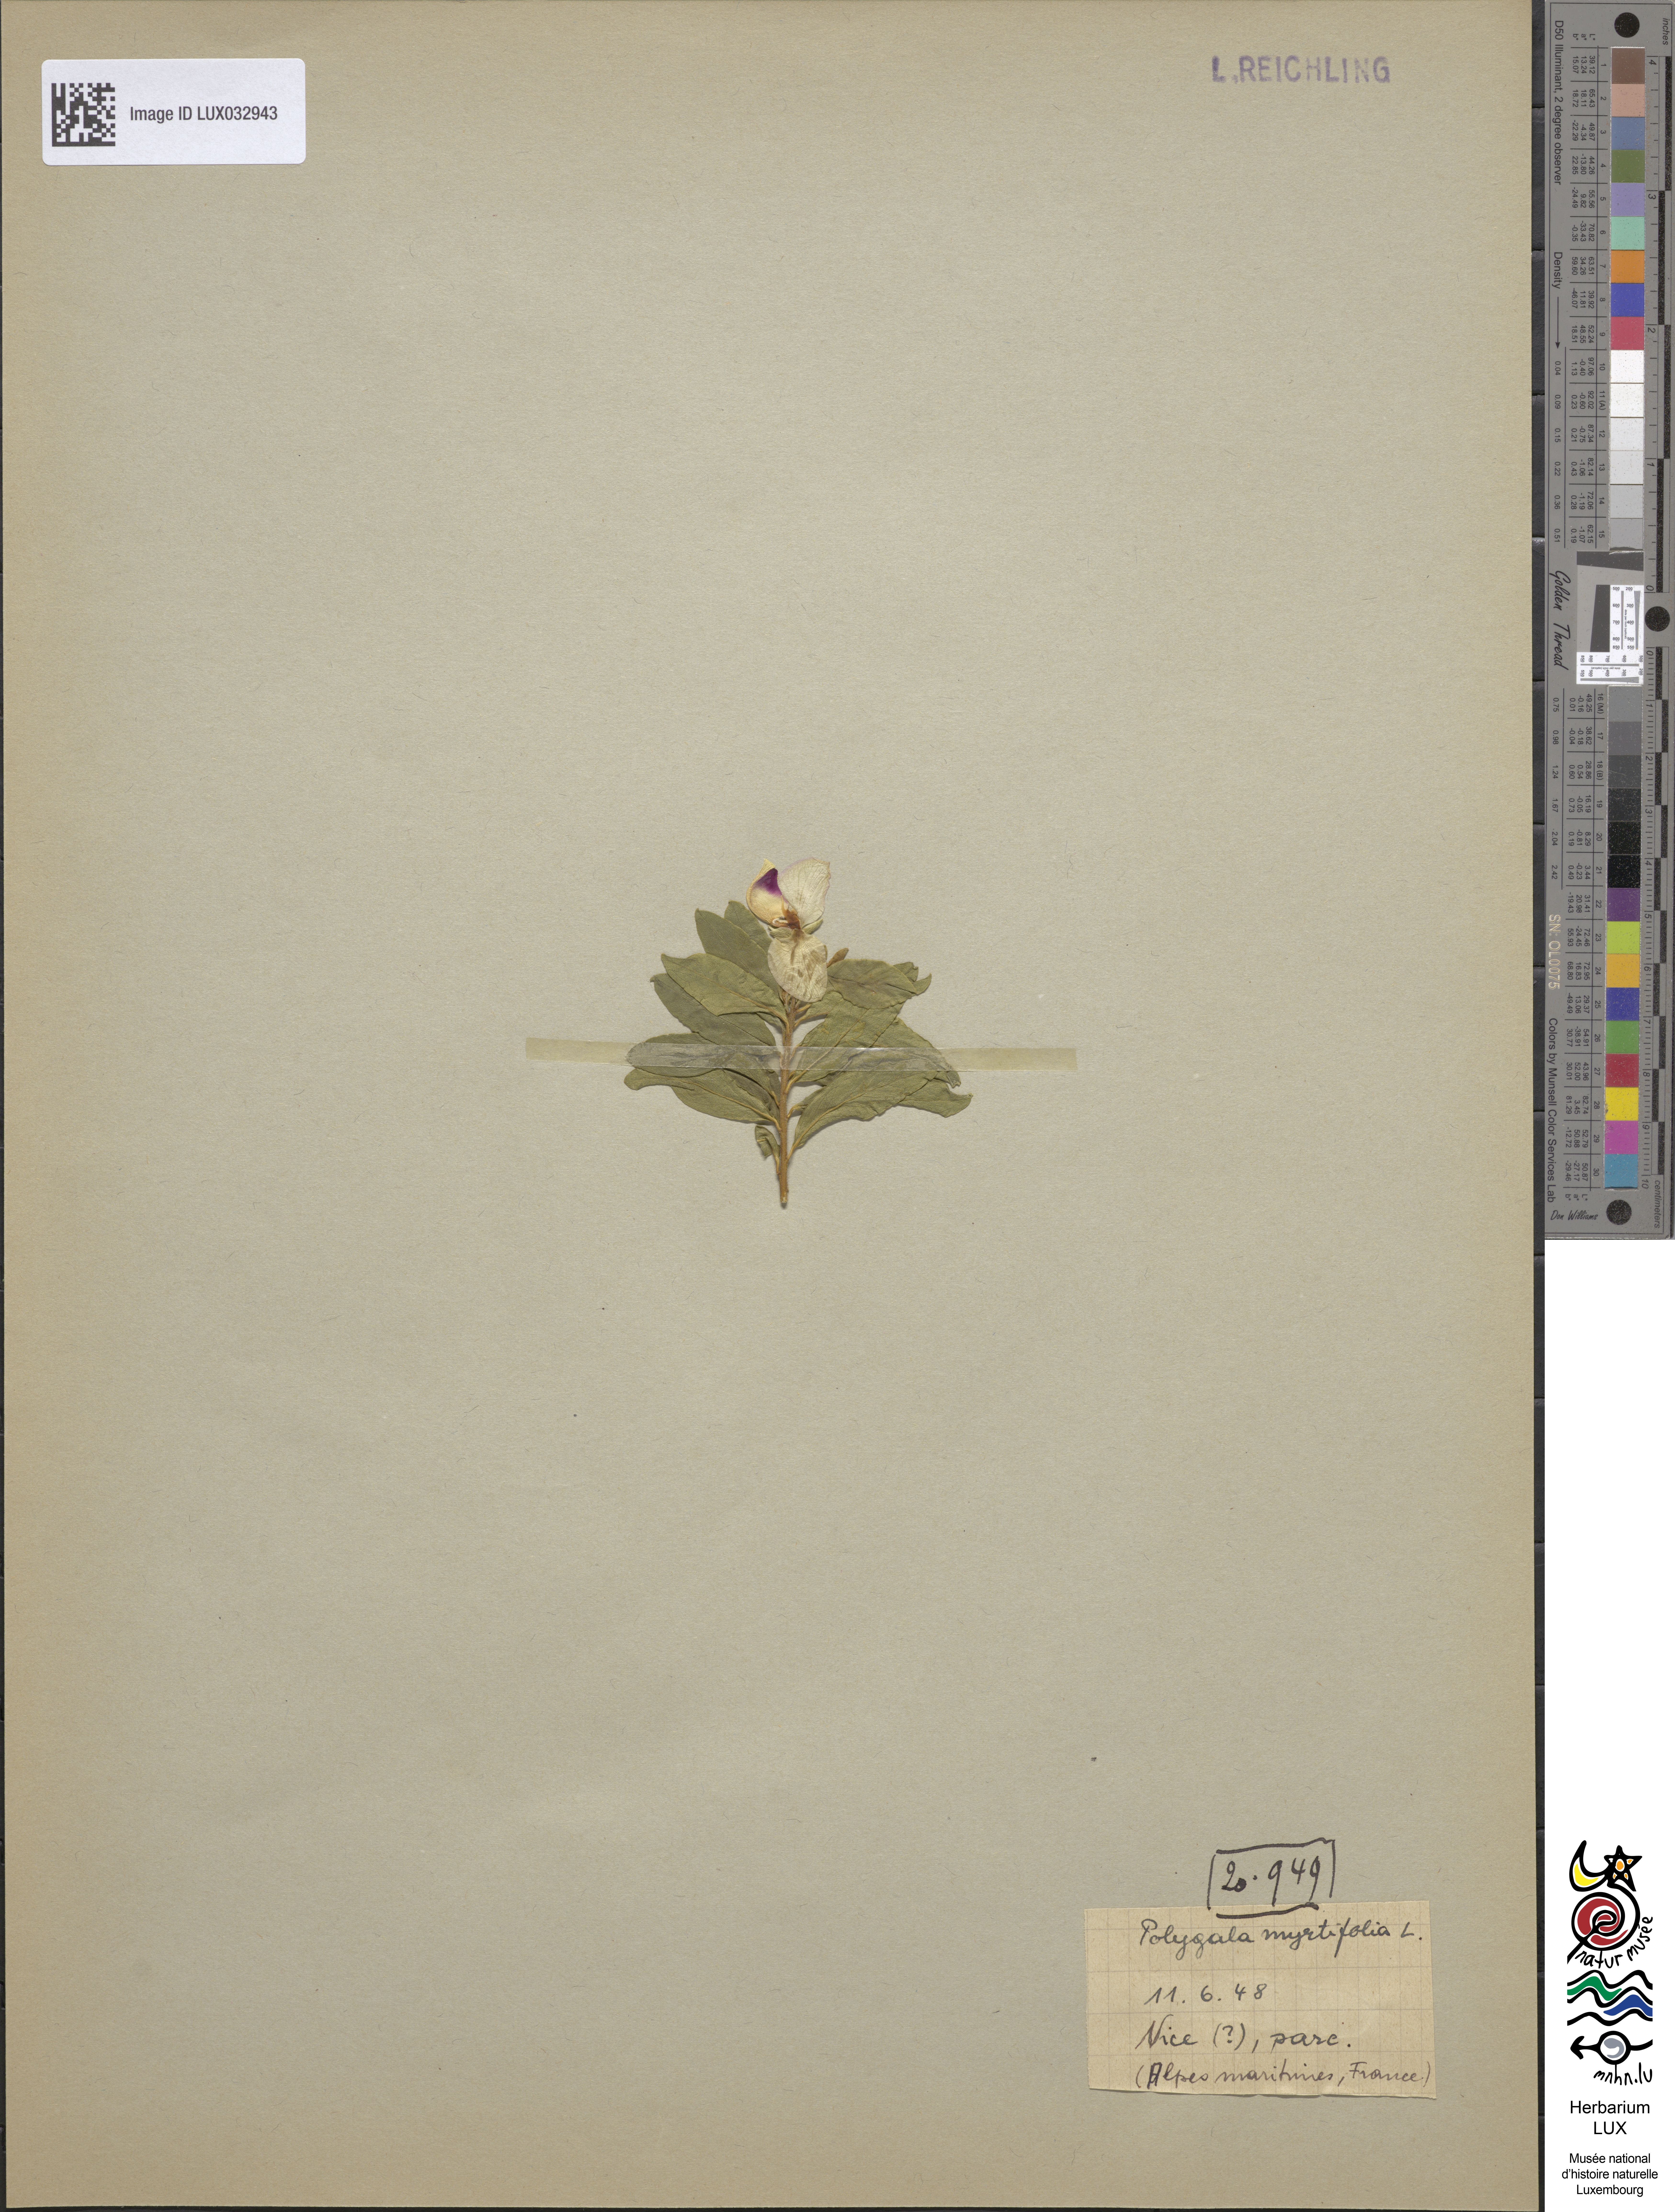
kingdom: Plantae
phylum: Tracheophyta
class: Magnoliopsida
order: Fabales
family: Polygalaceae
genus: Polygala
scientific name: Polygala myrtifolia
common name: Myrtle-leaf milkwort
